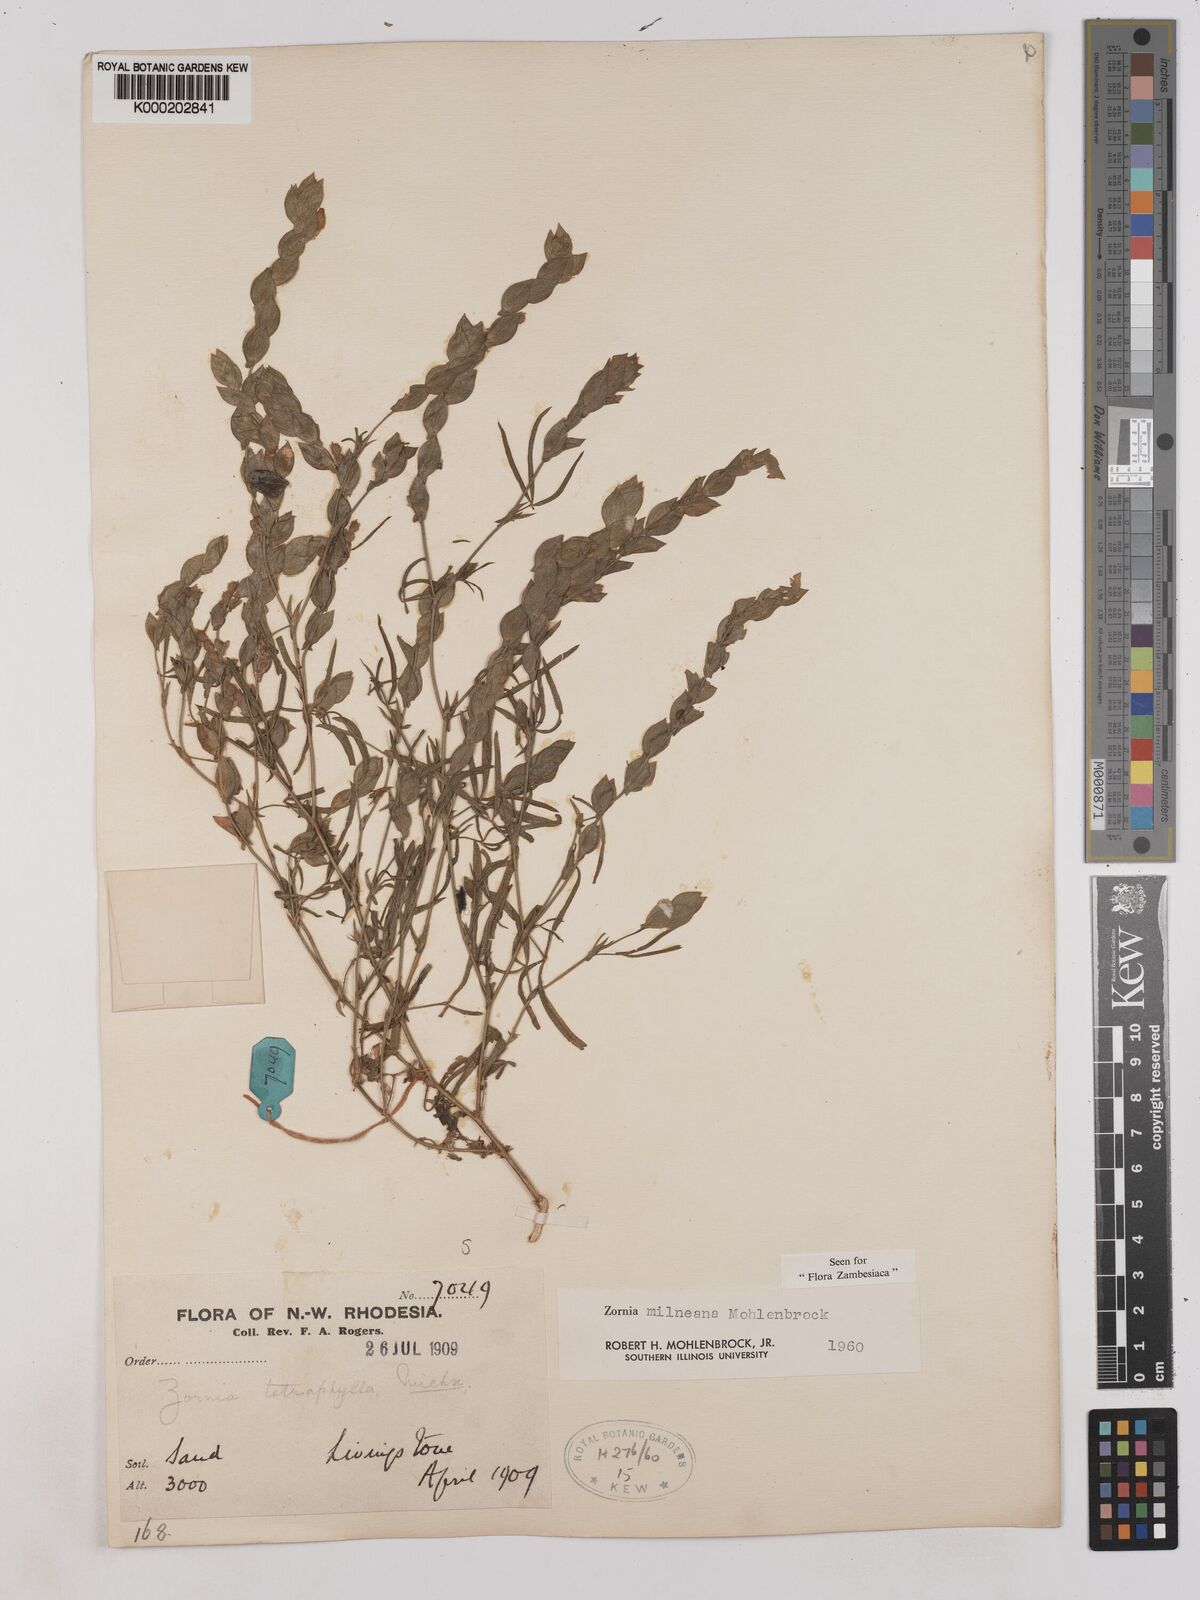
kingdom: Plantae
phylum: Tracheophyta
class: Magnoliopsida
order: Fabales
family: Fabaceae
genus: Zornia
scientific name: Zornia milneana
